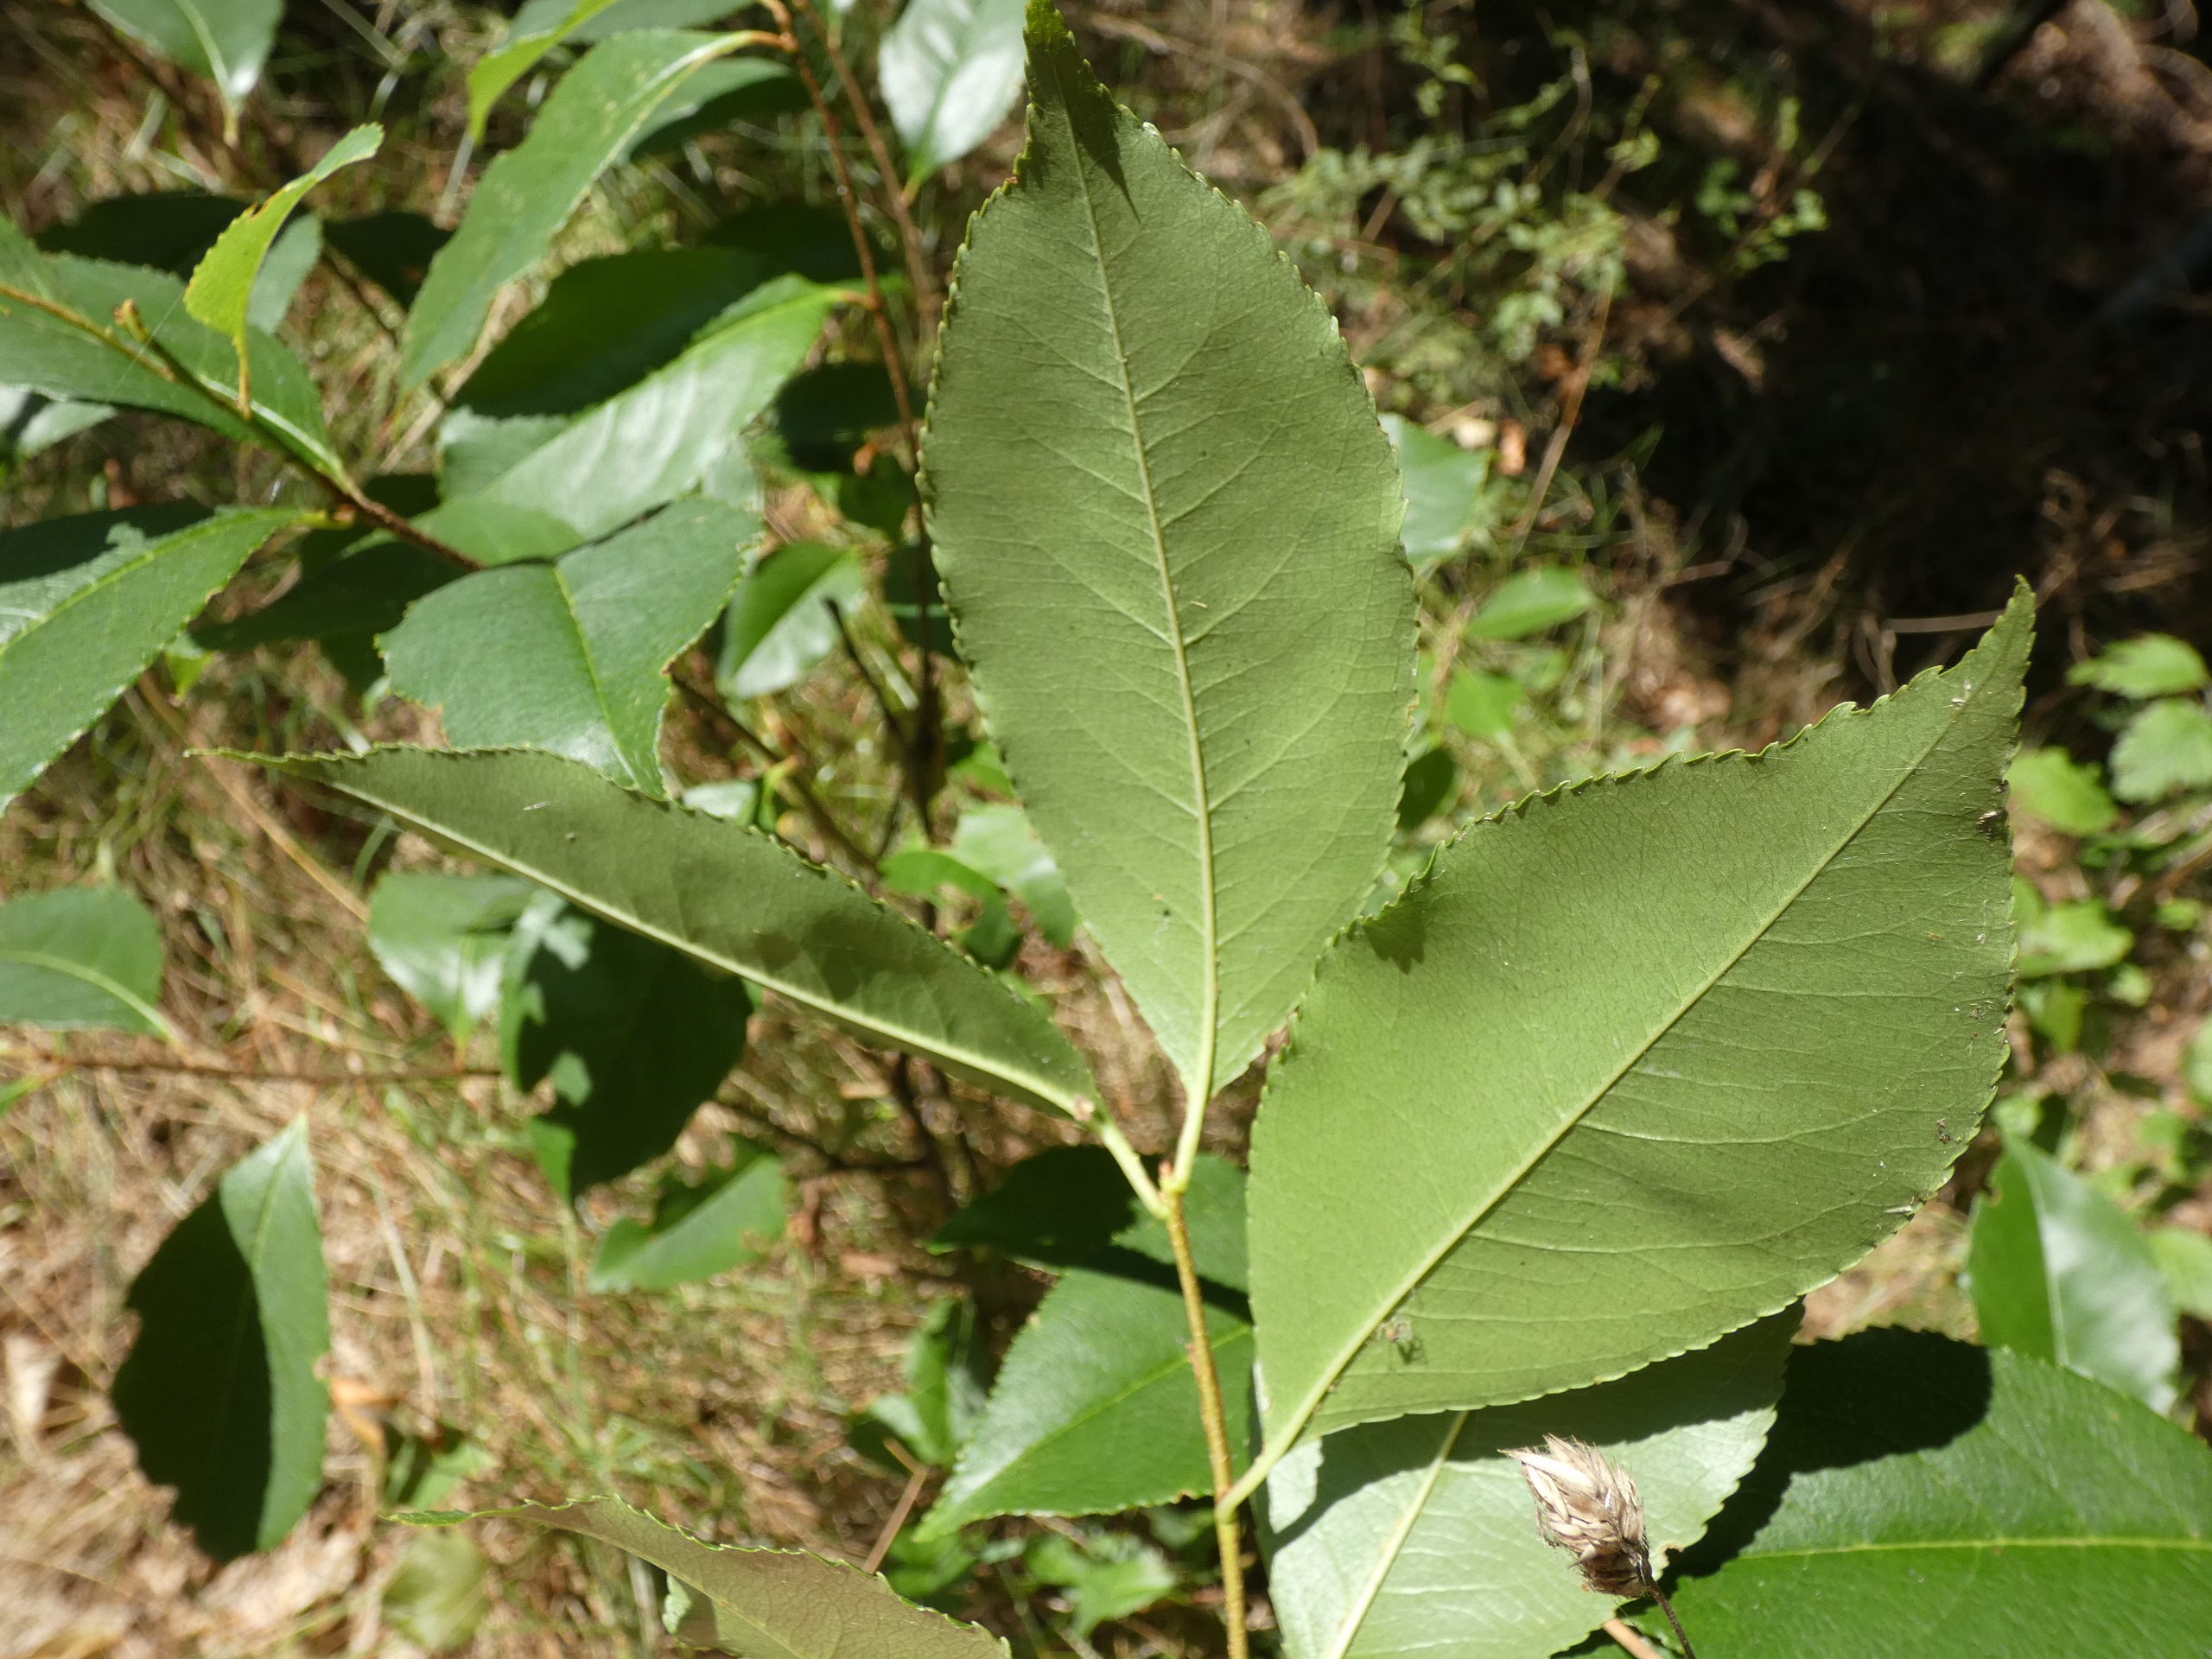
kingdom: Plantae
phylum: Tracheophyta
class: Magnoliopsida
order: Malpighiales
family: Salicaceae
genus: Salix
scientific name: Salix pentandra
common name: Femhannet pil
